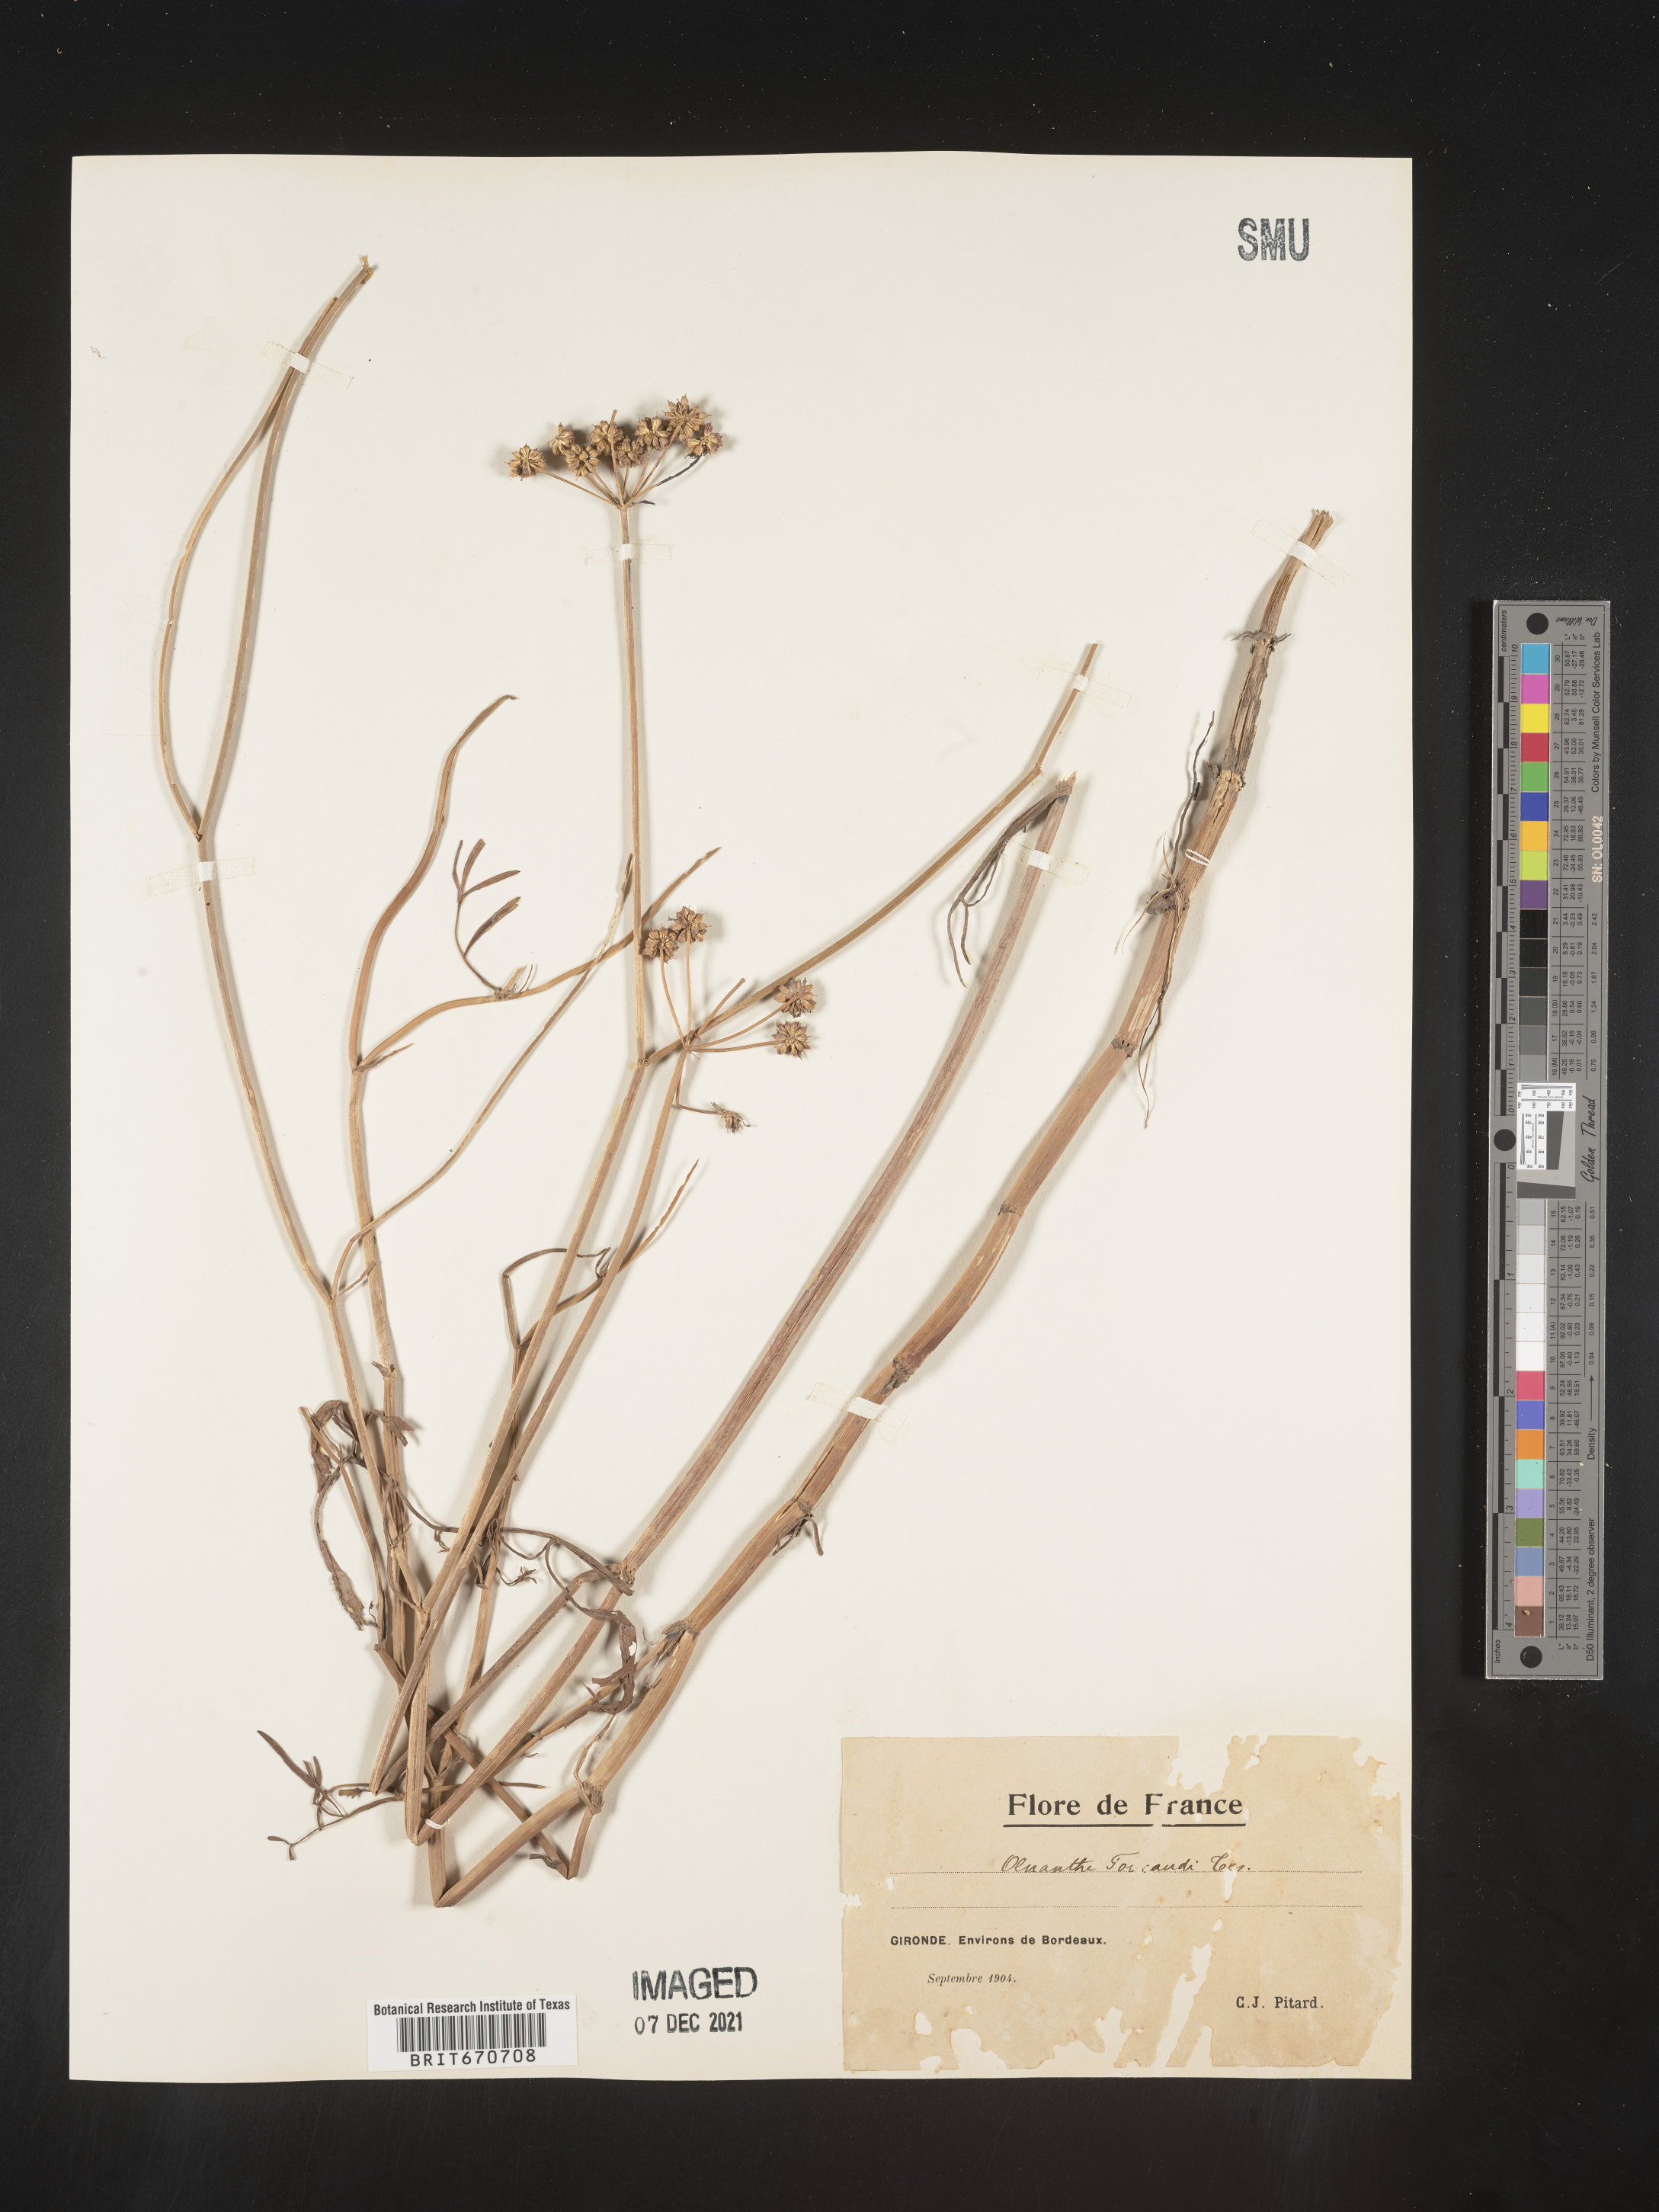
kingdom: Plantae
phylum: Tracheophyta
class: Magnoliopsida
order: Apiales
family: Apiaceae
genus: Oenanthe
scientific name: Oenanthe
